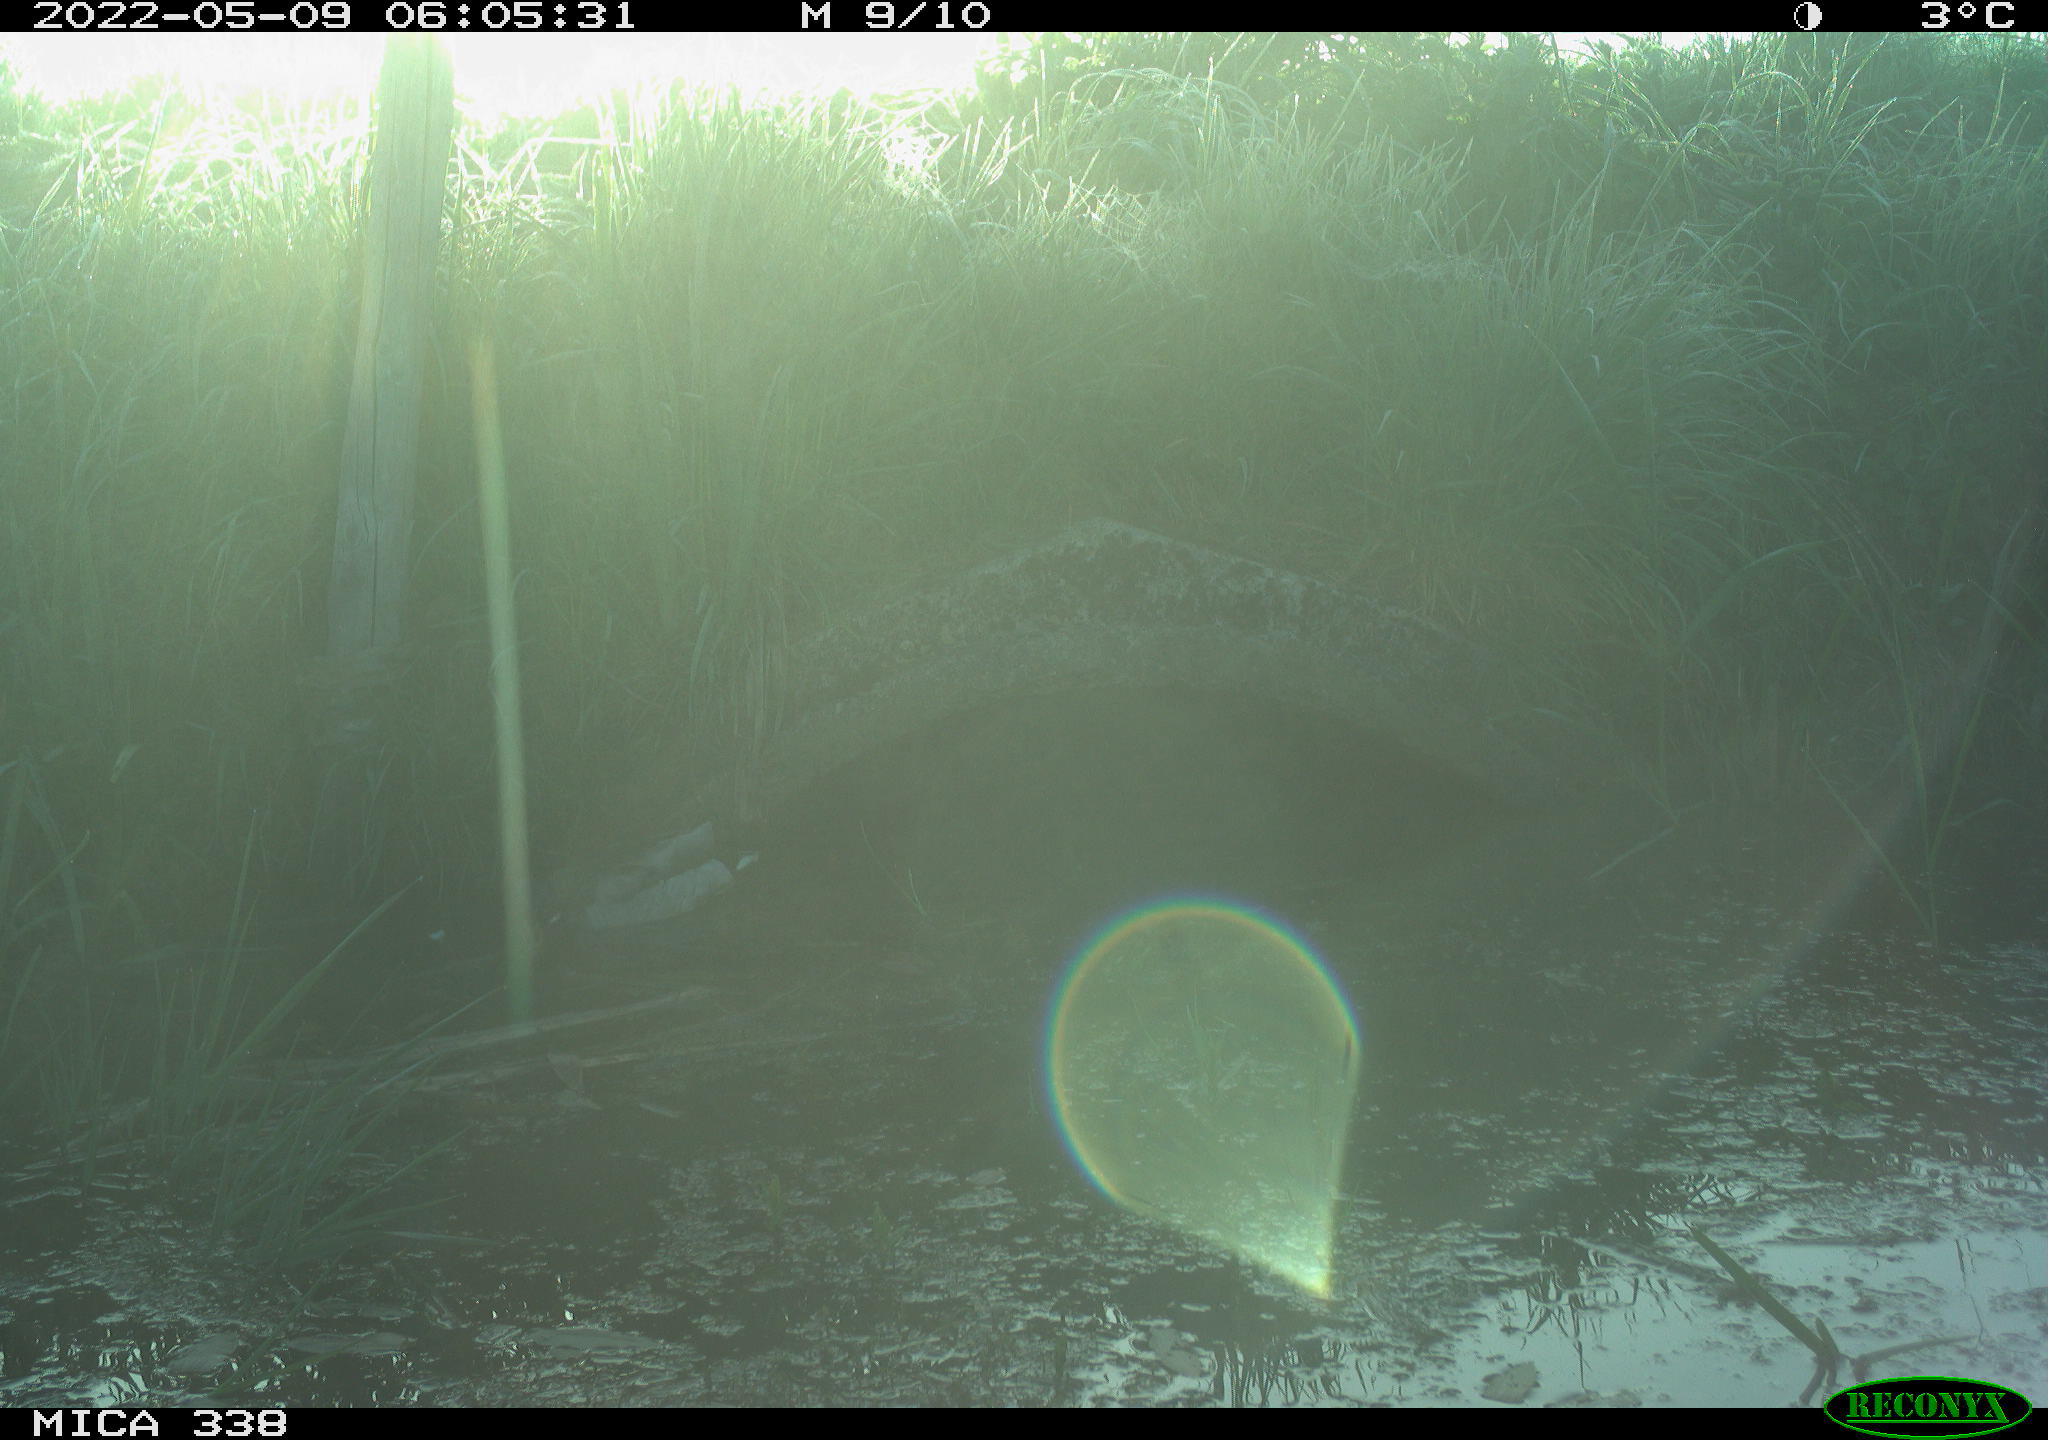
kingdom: Animalia
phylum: Chordata
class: Aves
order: Anseriformes
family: Anatidae
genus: Anas
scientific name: Anas platyrhynchos
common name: Mallard
